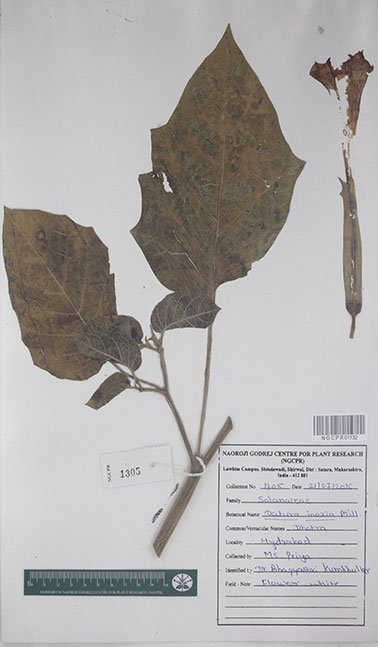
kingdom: Plantae
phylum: Tracheophyta
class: Magnoliopsida
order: Solanales
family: Solanaceae
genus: Datura
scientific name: Datura innoxia
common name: Downy thorn-apple
